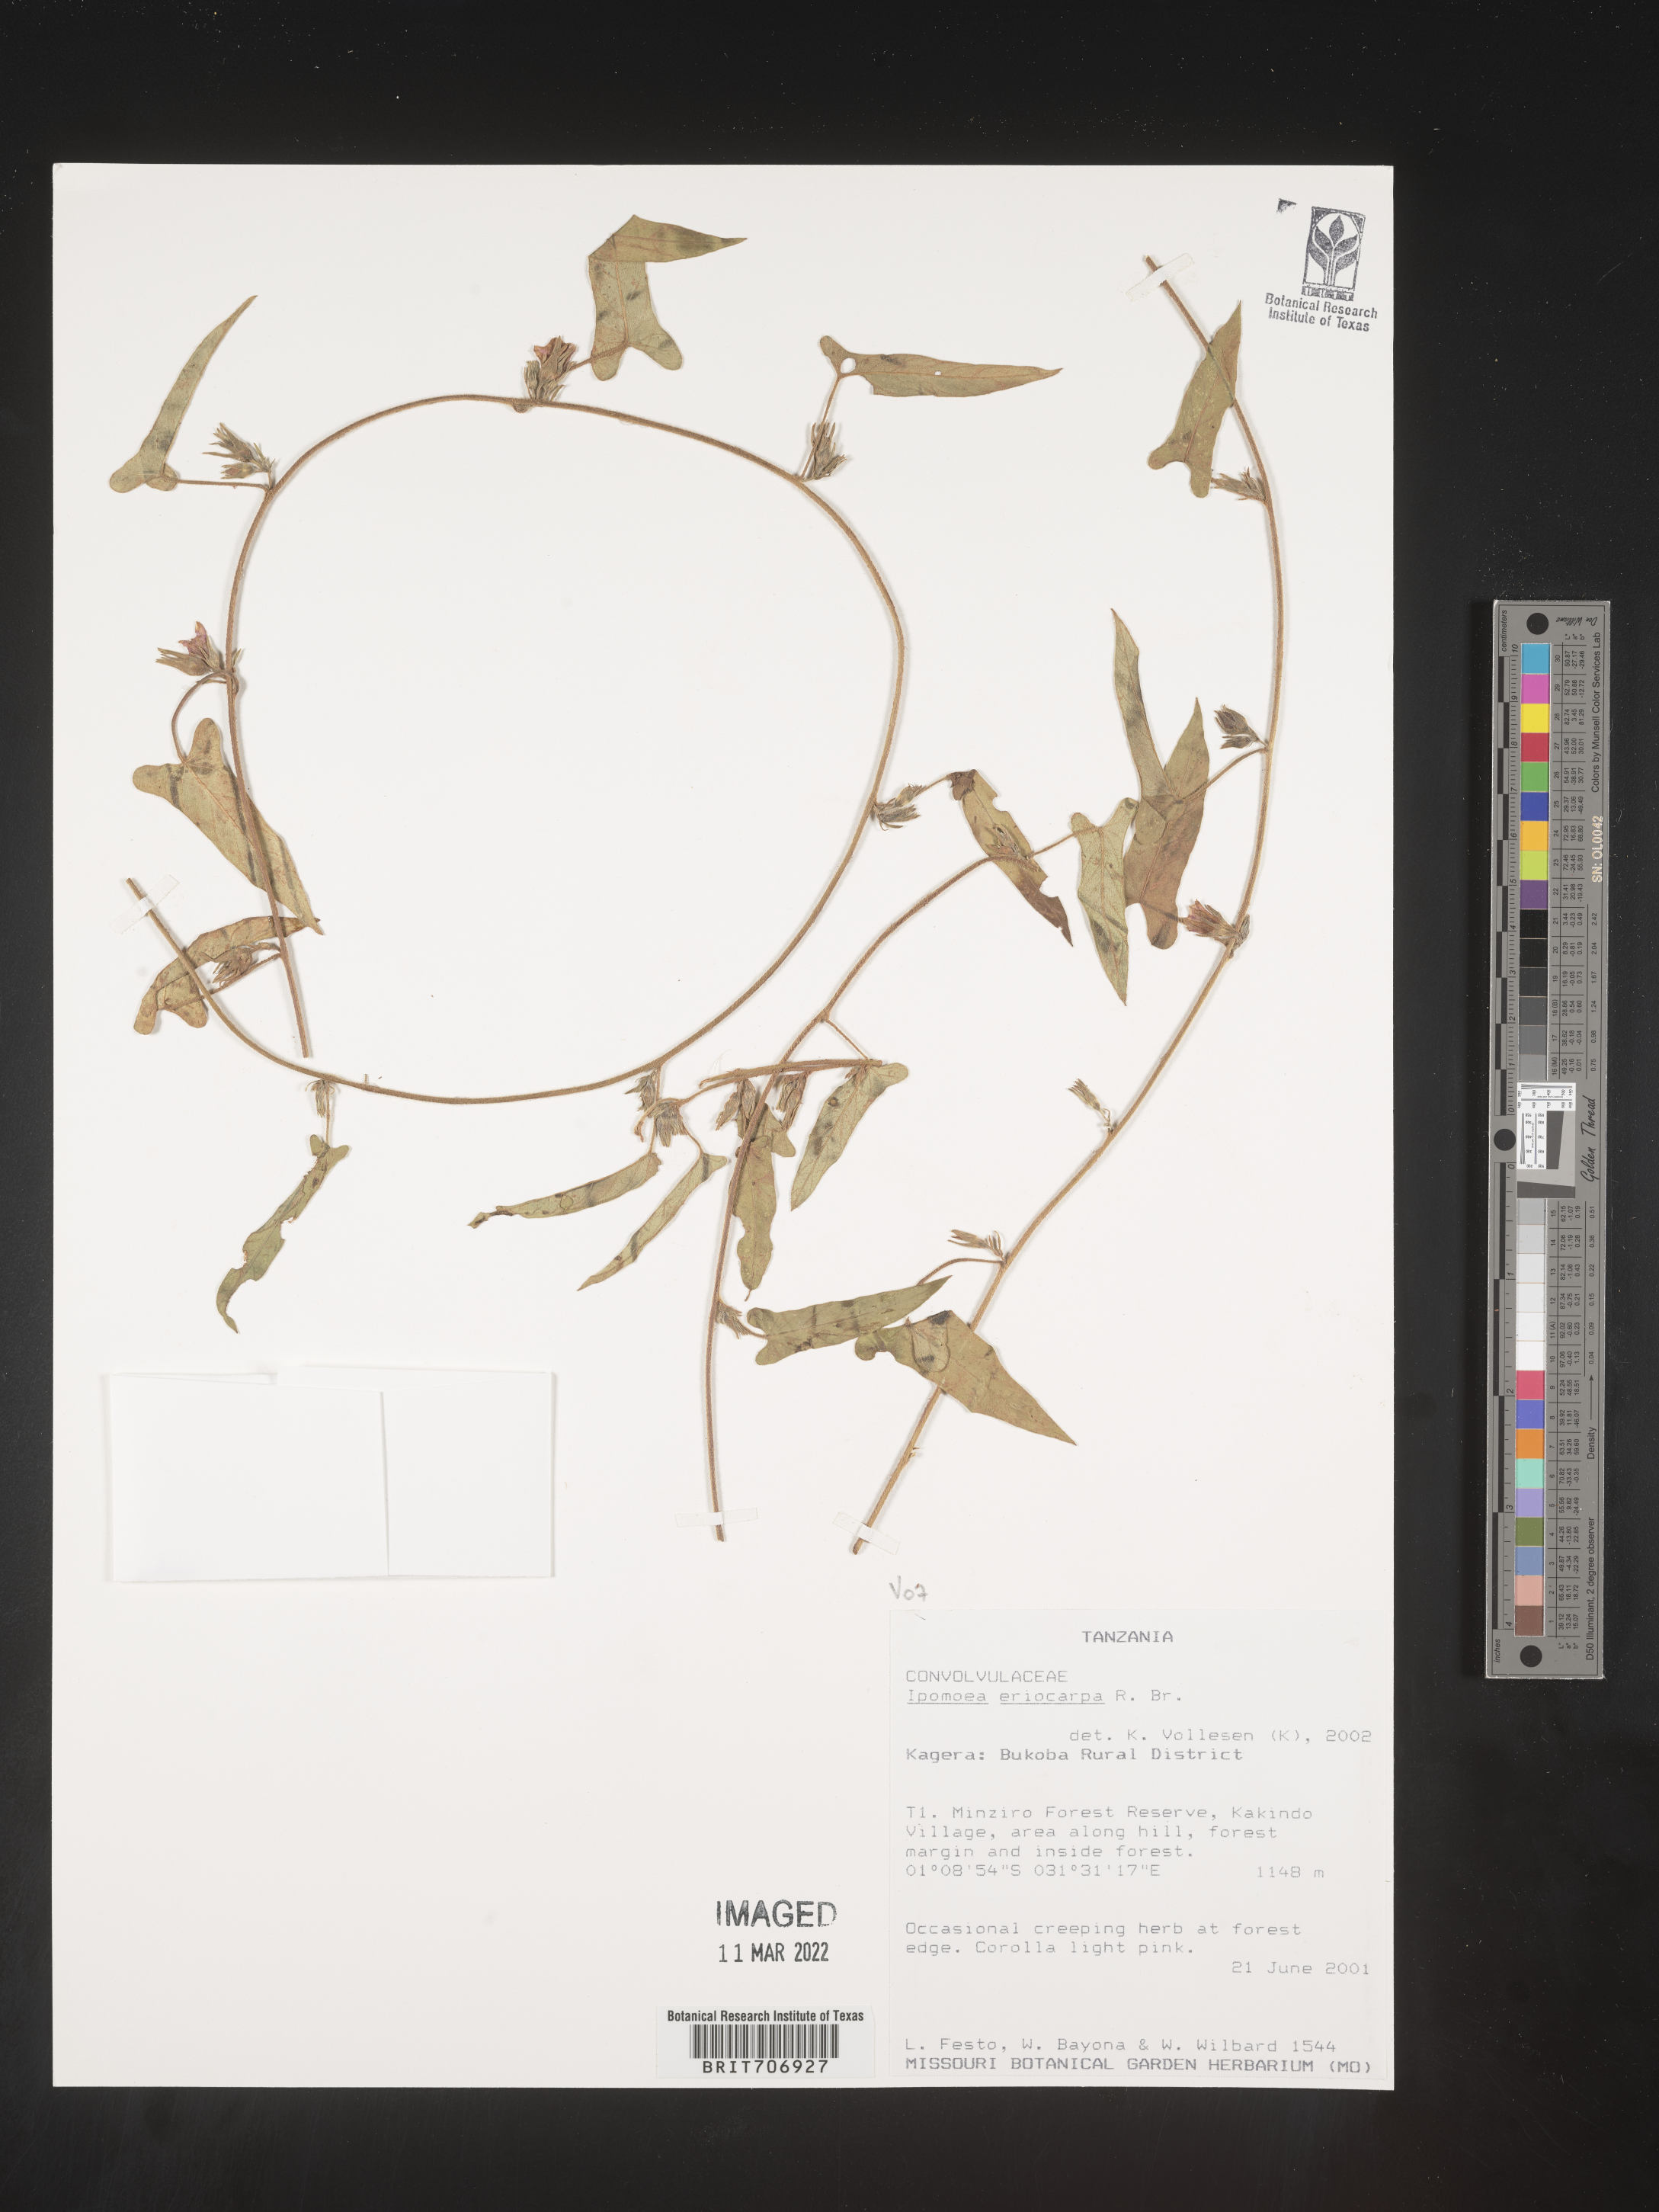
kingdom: Plantae
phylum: Tracheophyta
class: Magnoliopsida
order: Solanales
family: Convolvulaceae
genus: Ipomoea
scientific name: Ipomoea
